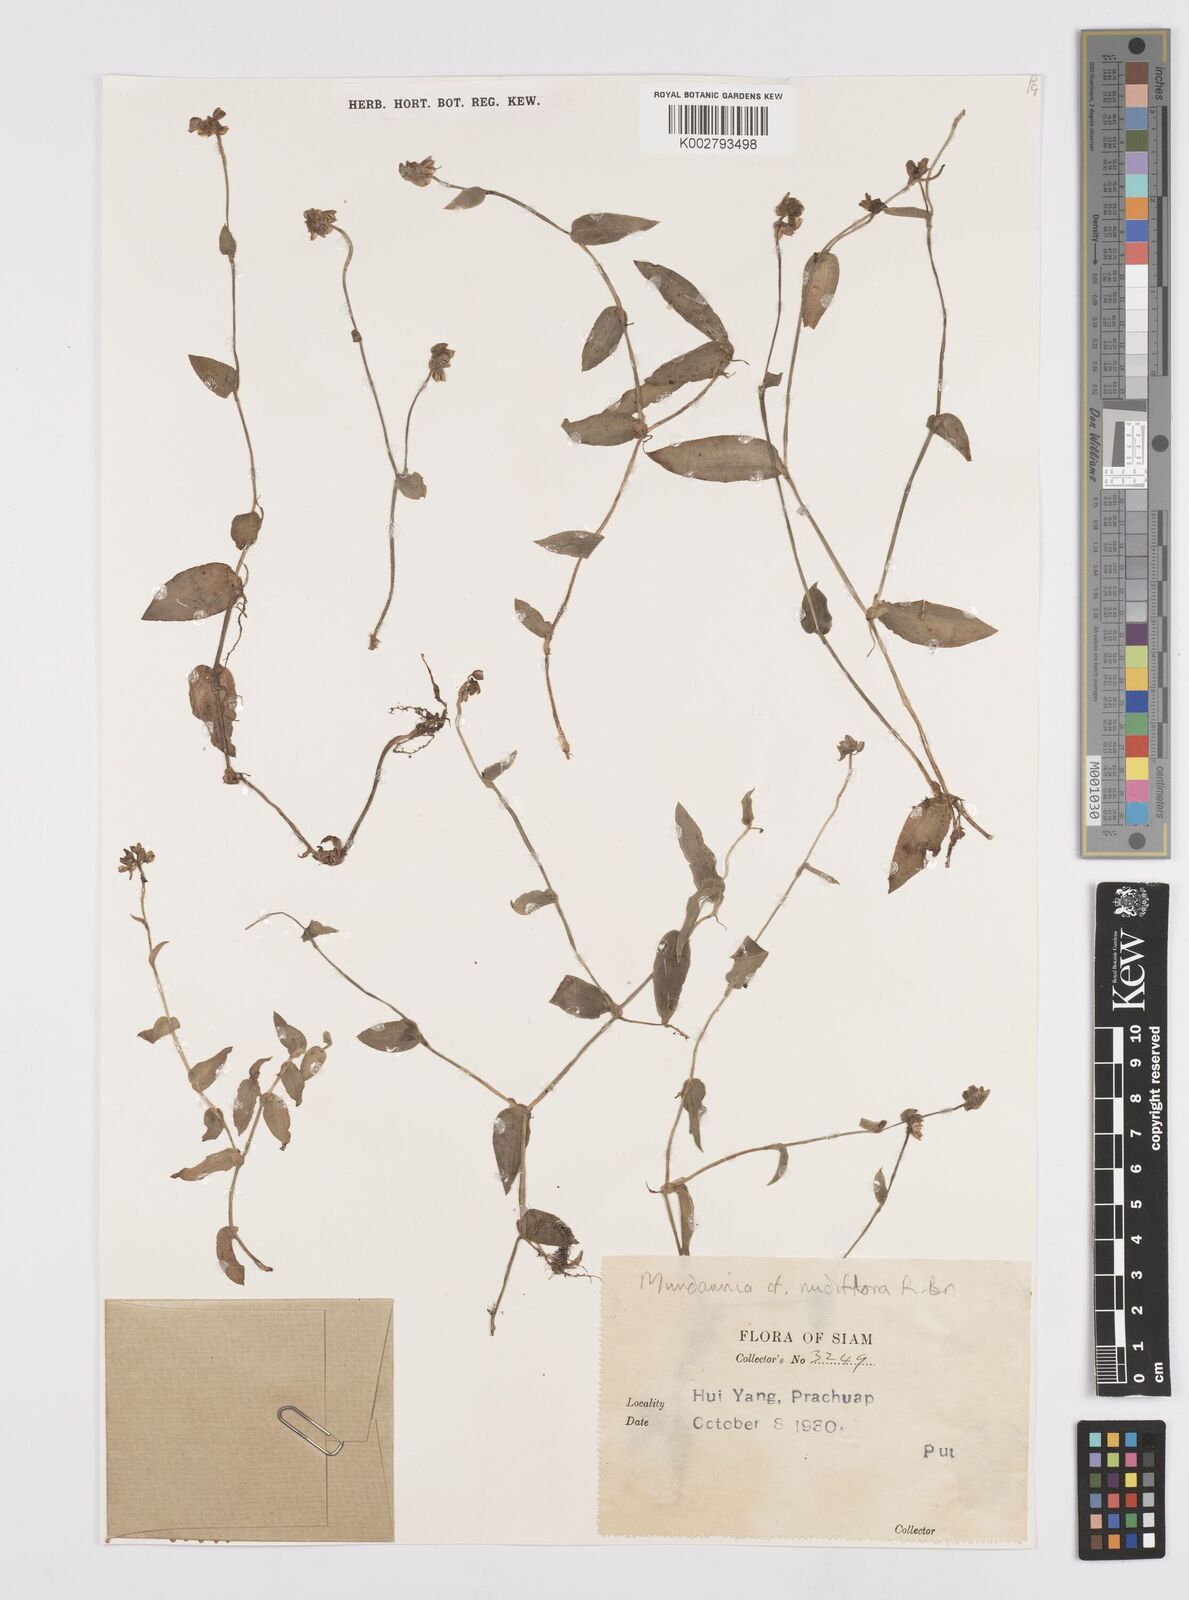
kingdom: Plantae
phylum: Tracheophyta
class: Liliopsida
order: Commelinales
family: Commelinaceae
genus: Murdannia
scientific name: Murdannia nudiflora
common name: Nakedstem dewflower
